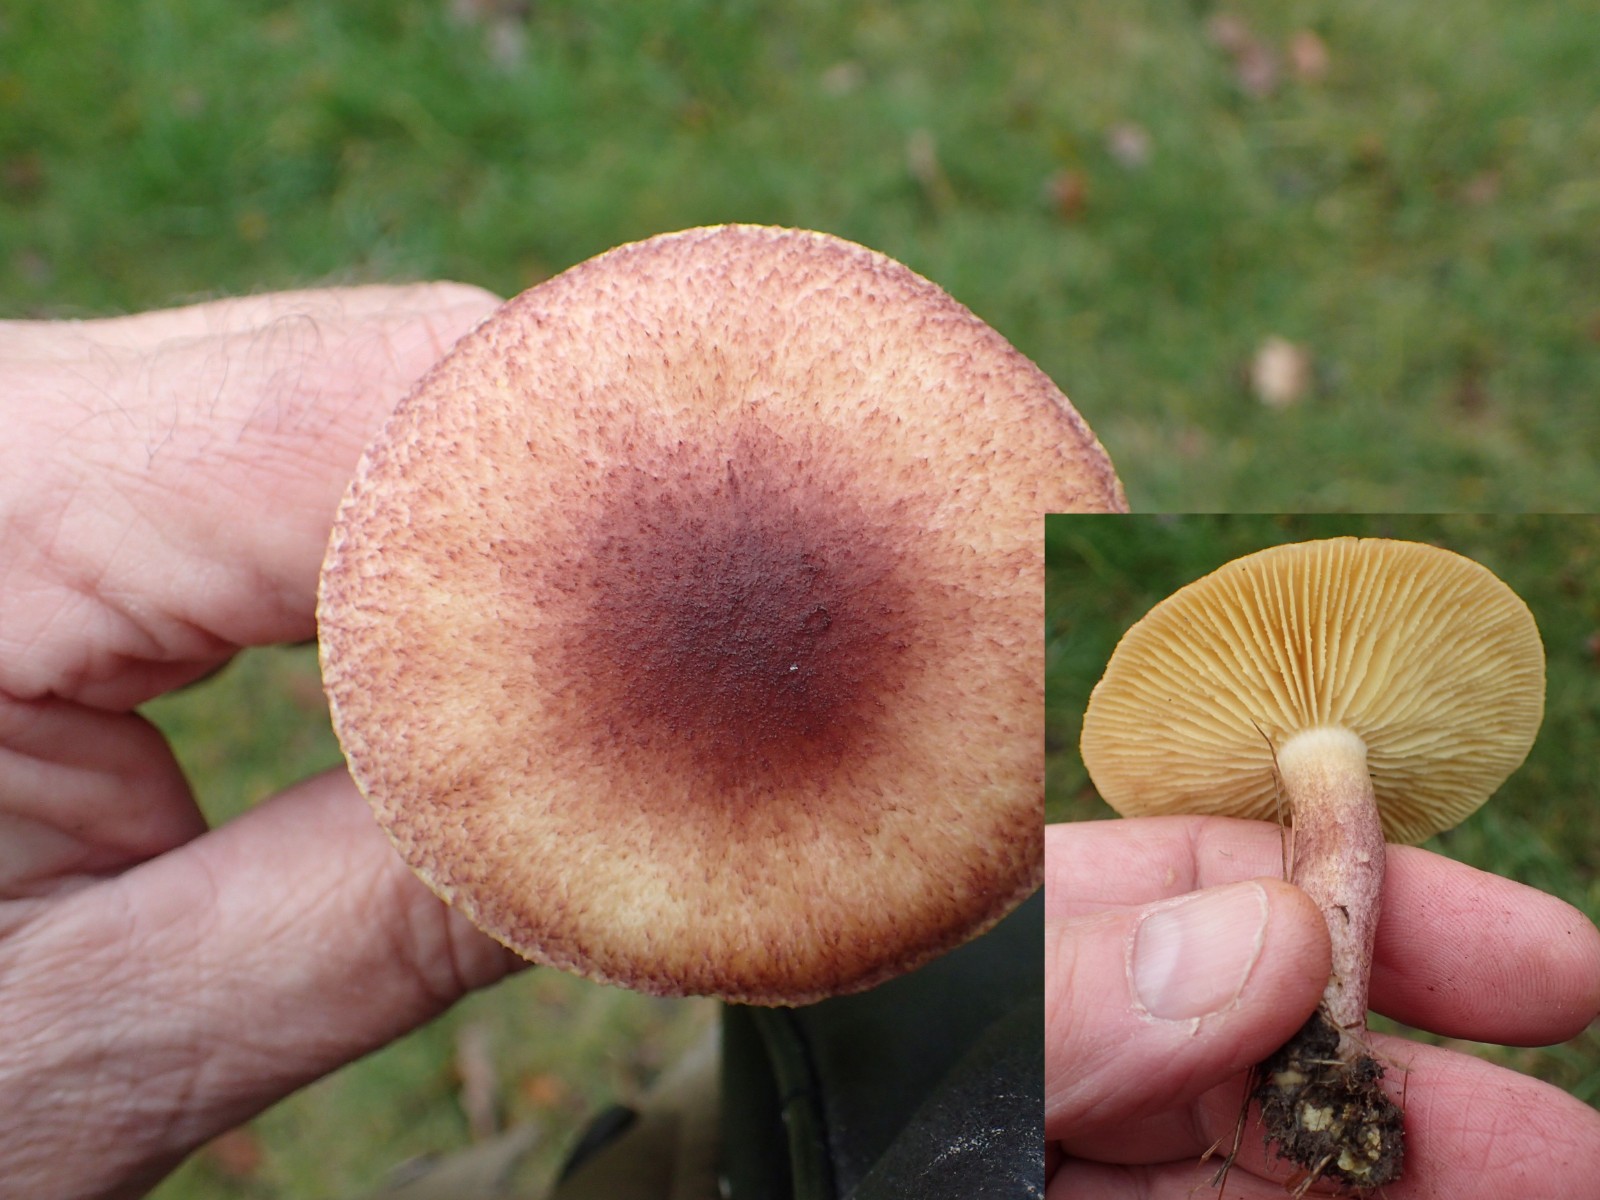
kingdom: Fungi
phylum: Basidiomycota
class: Agaricomycetes
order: Agaricales
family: Tricholomataceae
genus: Tricholomopsis
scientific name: Tricholomopsis rutilans
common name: purpur-væbnerhat
